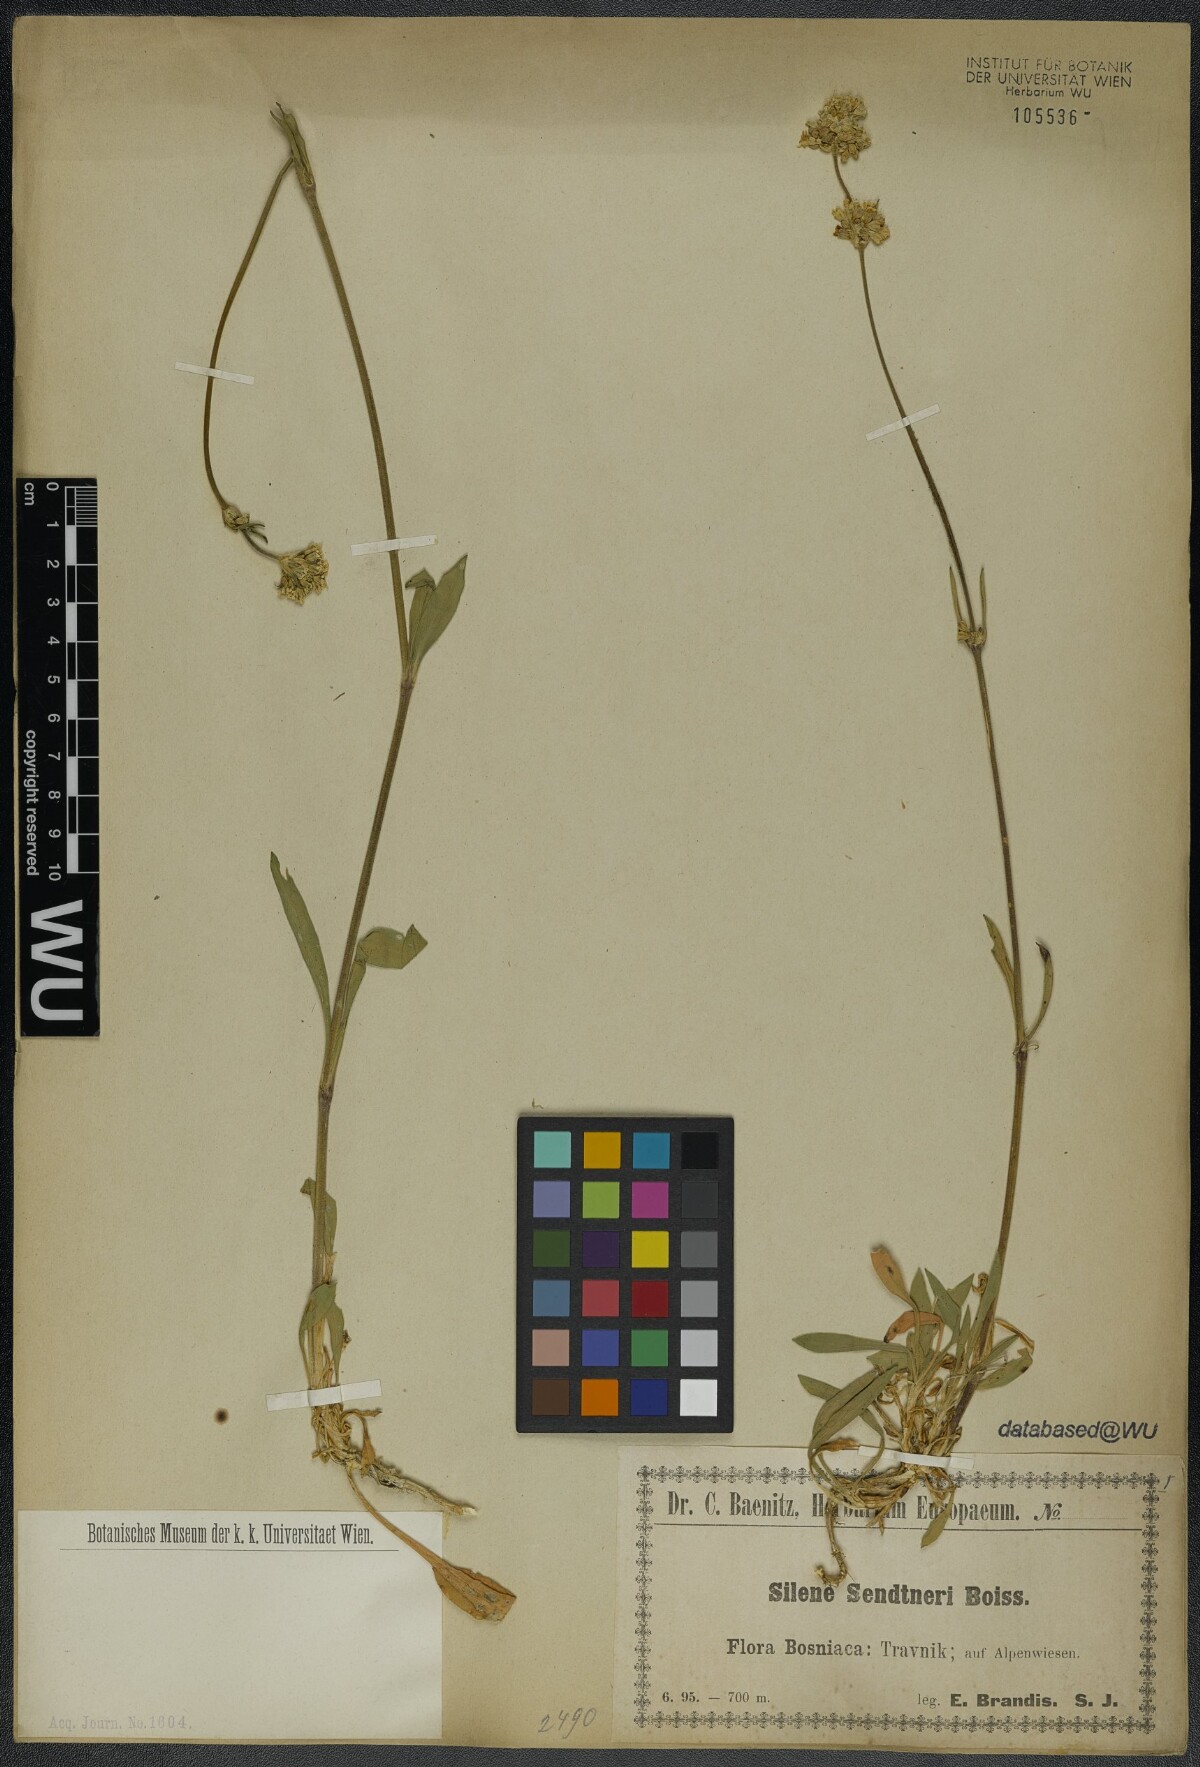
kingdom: Plantae
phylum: Tracheophyta
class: Magnoliopsida
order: Caryophyllales
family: Caryophyllaceae
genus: Silene
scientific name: Silene sendtneri
